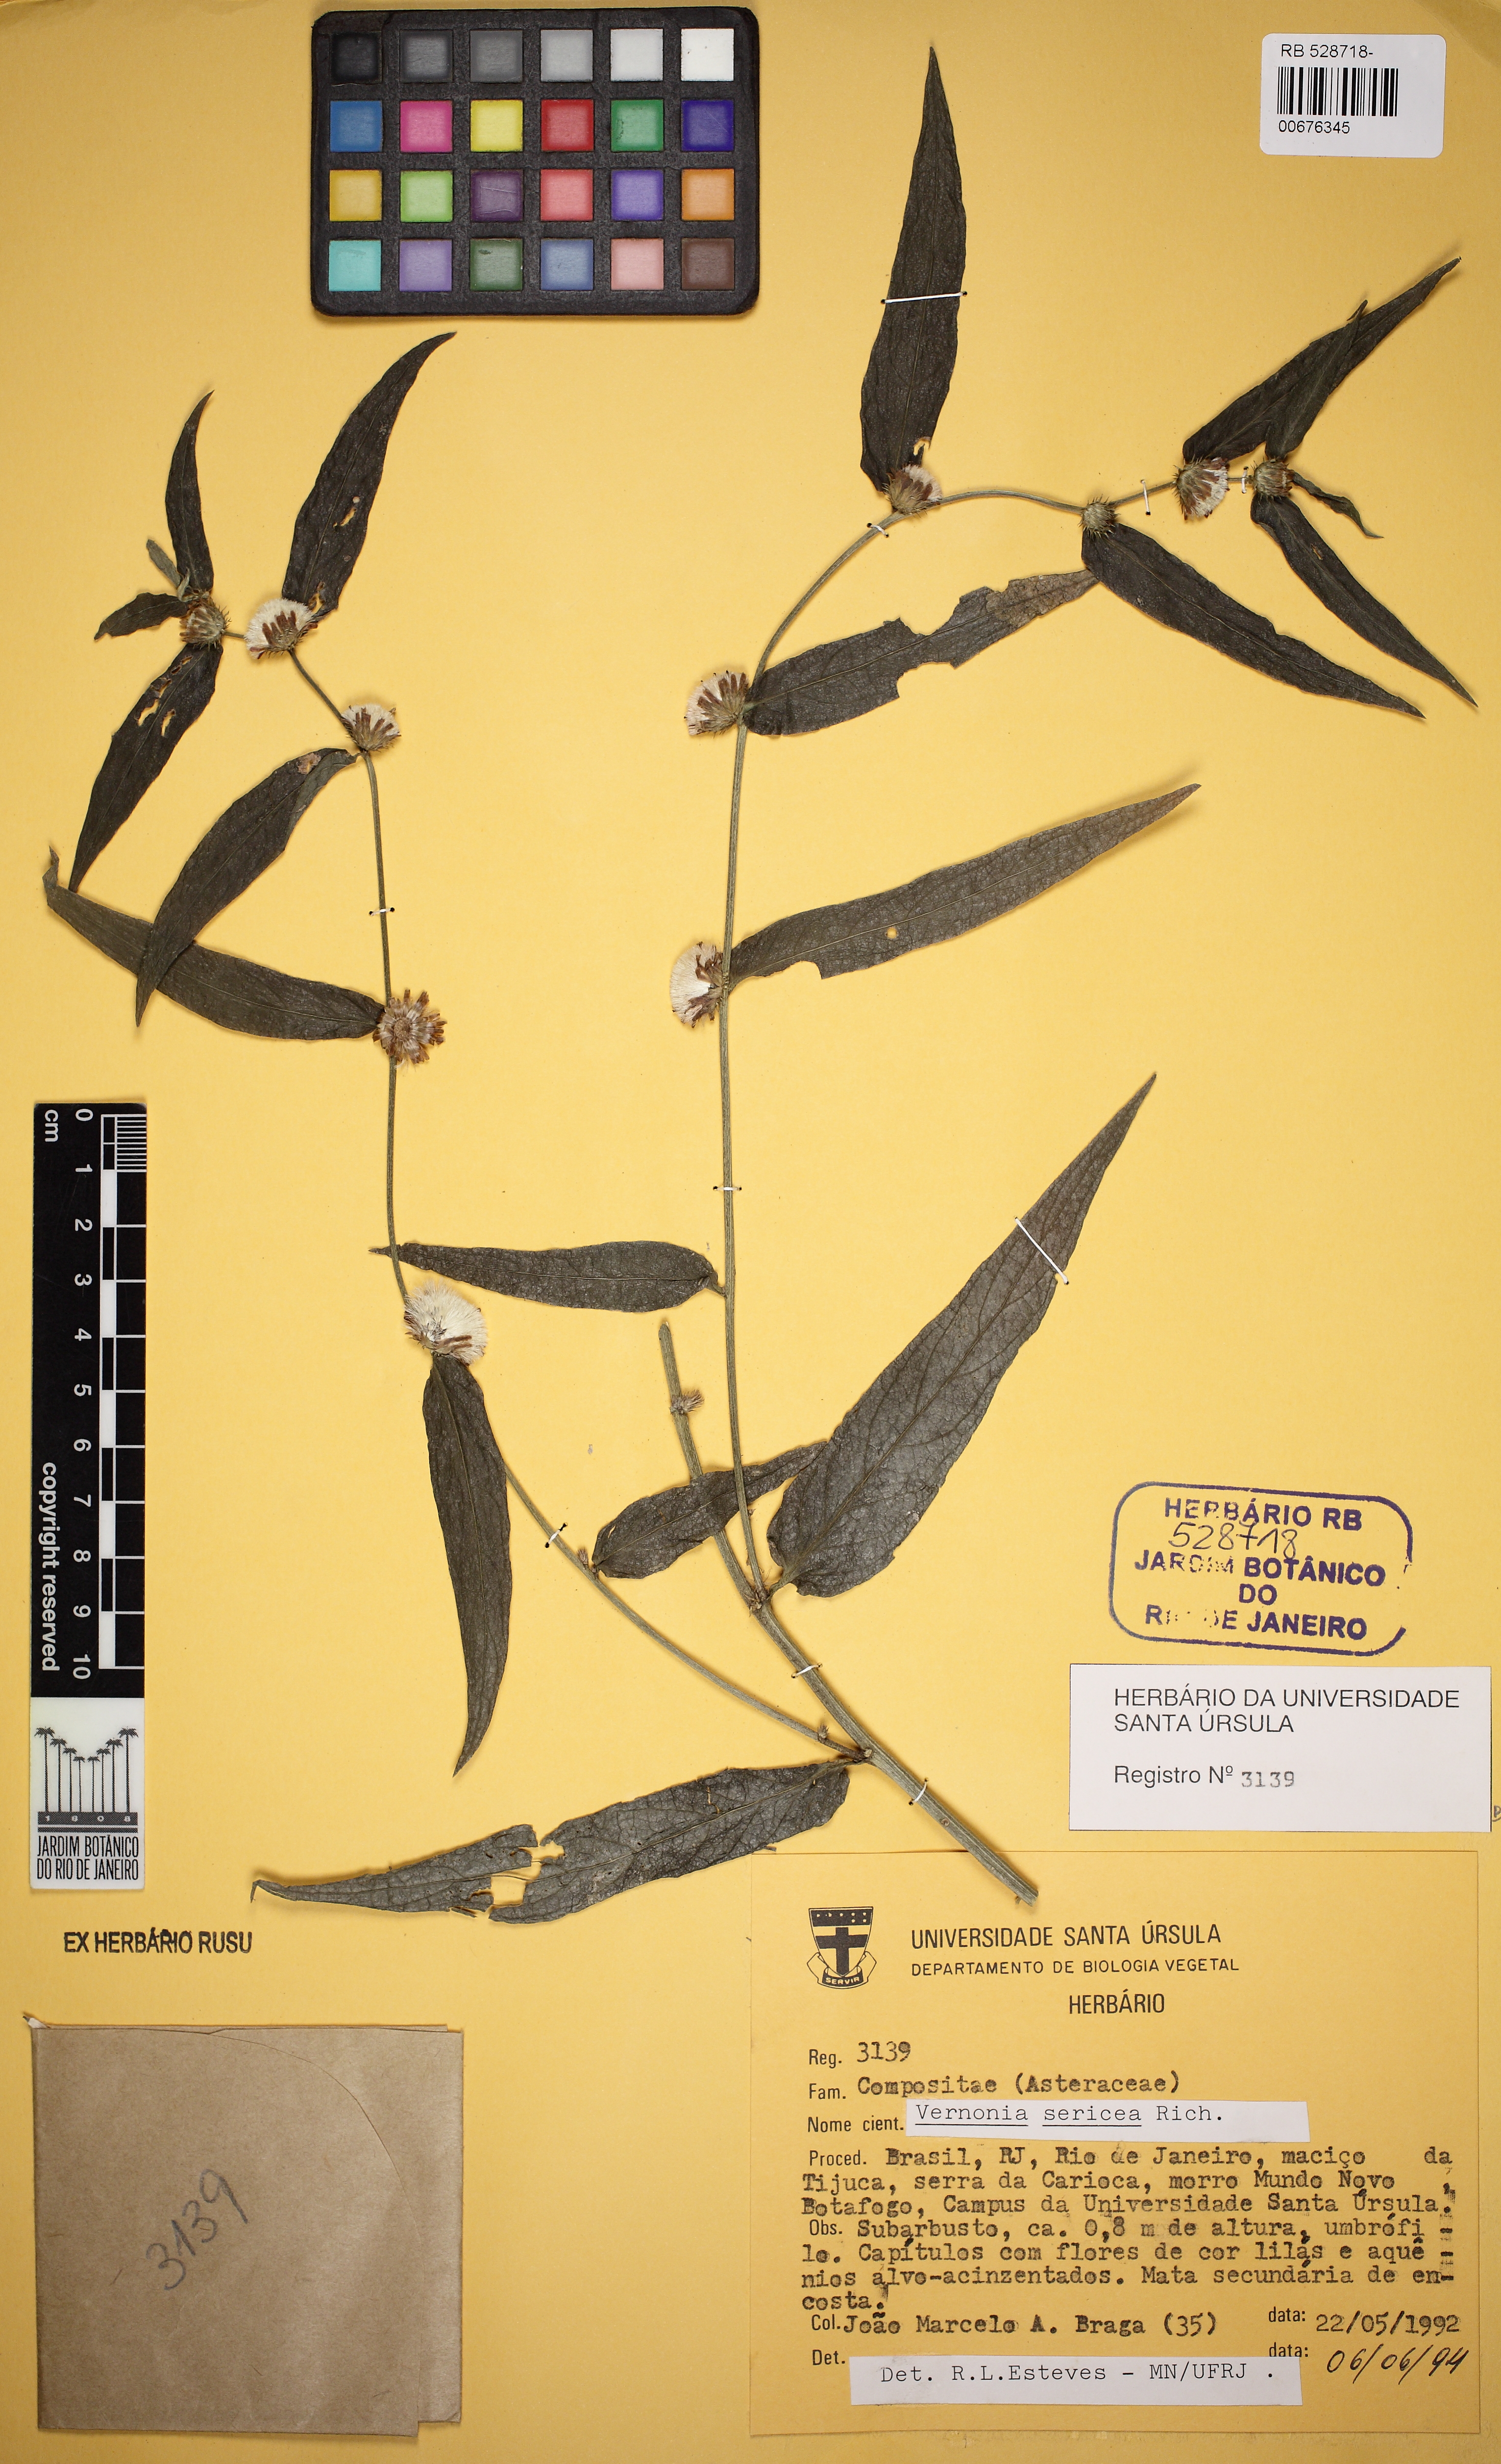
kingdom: Plantae
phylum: Tracheophyta
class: Magnoliopsida
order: Asterales
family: Asteraceae
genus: Lepidaploa
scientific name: Lepidaploa sericea
